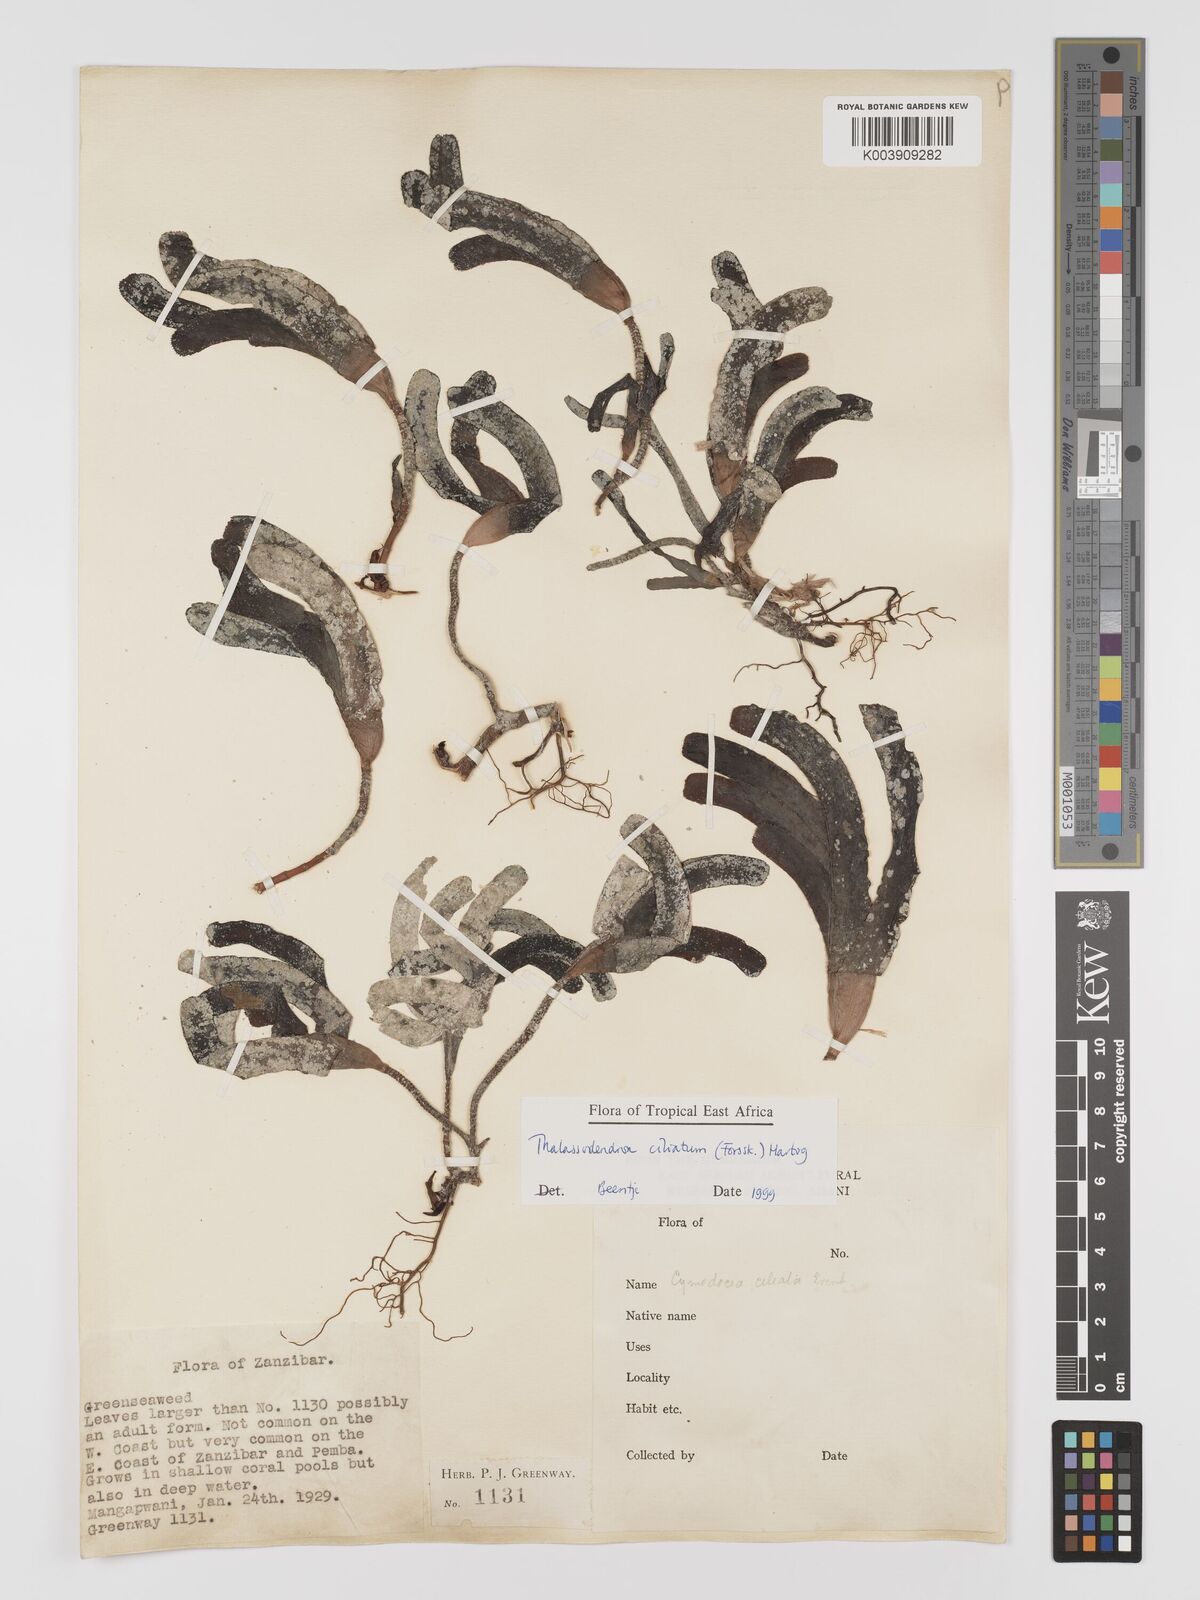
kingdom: Plantae
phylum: Tracheophyta
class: Liliopsida
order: Alismatales
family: Cymodoceaceae
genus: Thalassodendron
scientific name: Thalassodendron ciliatum
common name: Species code: tc
